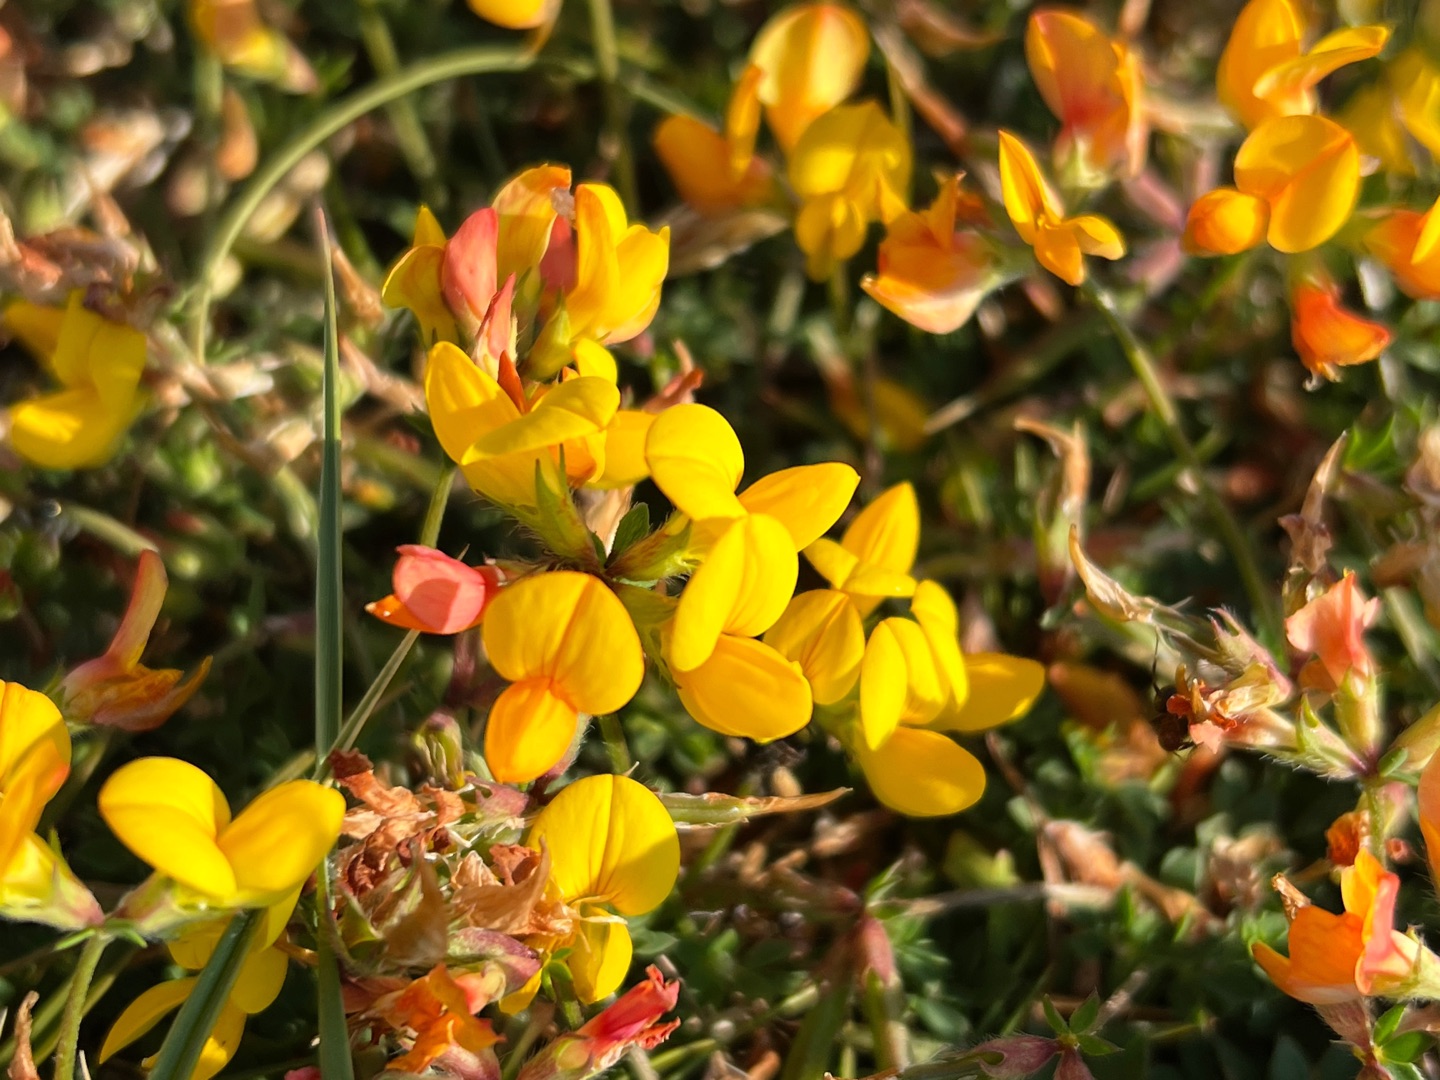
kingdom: Plantae
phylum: Tracheophyta
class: Magnoliopsida
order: Fabales
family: Fabaceae
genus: Lotus
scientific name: Lotus corniculatus
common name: Almindelig kællingetand
